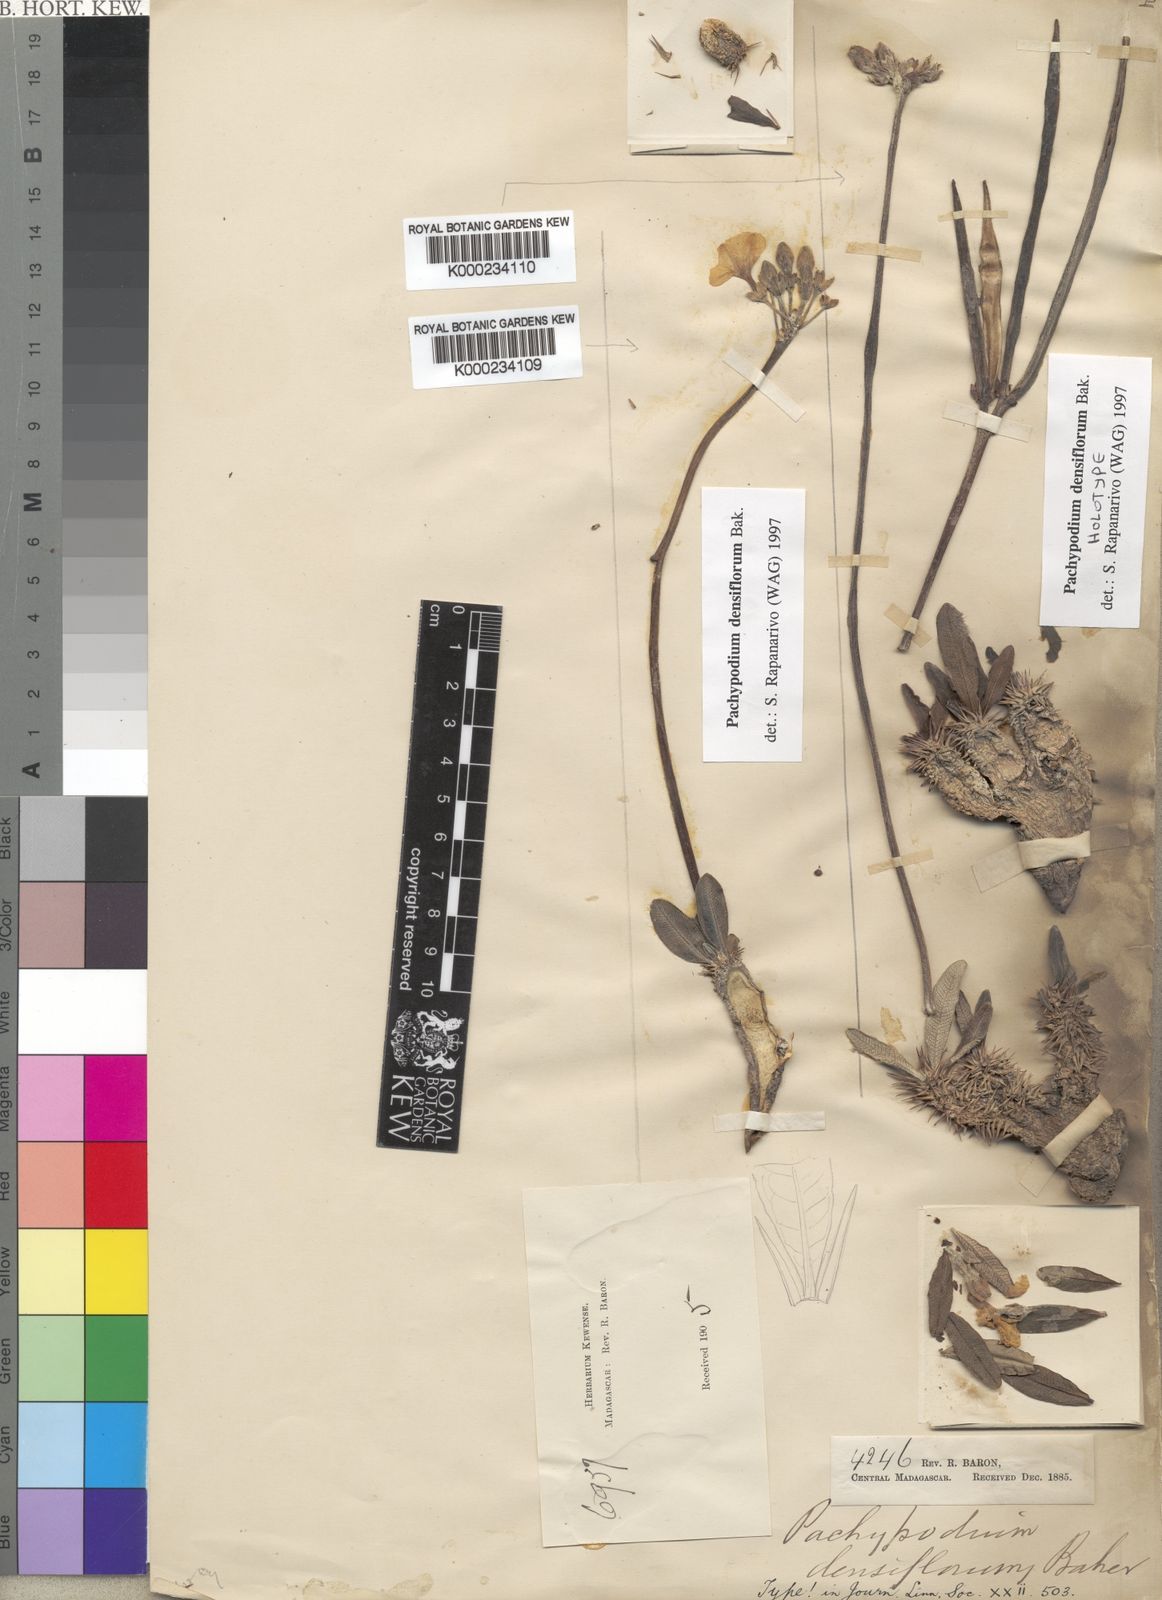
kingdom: Plantae
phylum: Tracheophyta
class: Magnoliopsida
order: Gentianales
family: Apocynaceae
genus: Pachypodium
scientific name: Pachypodium densiflorum
